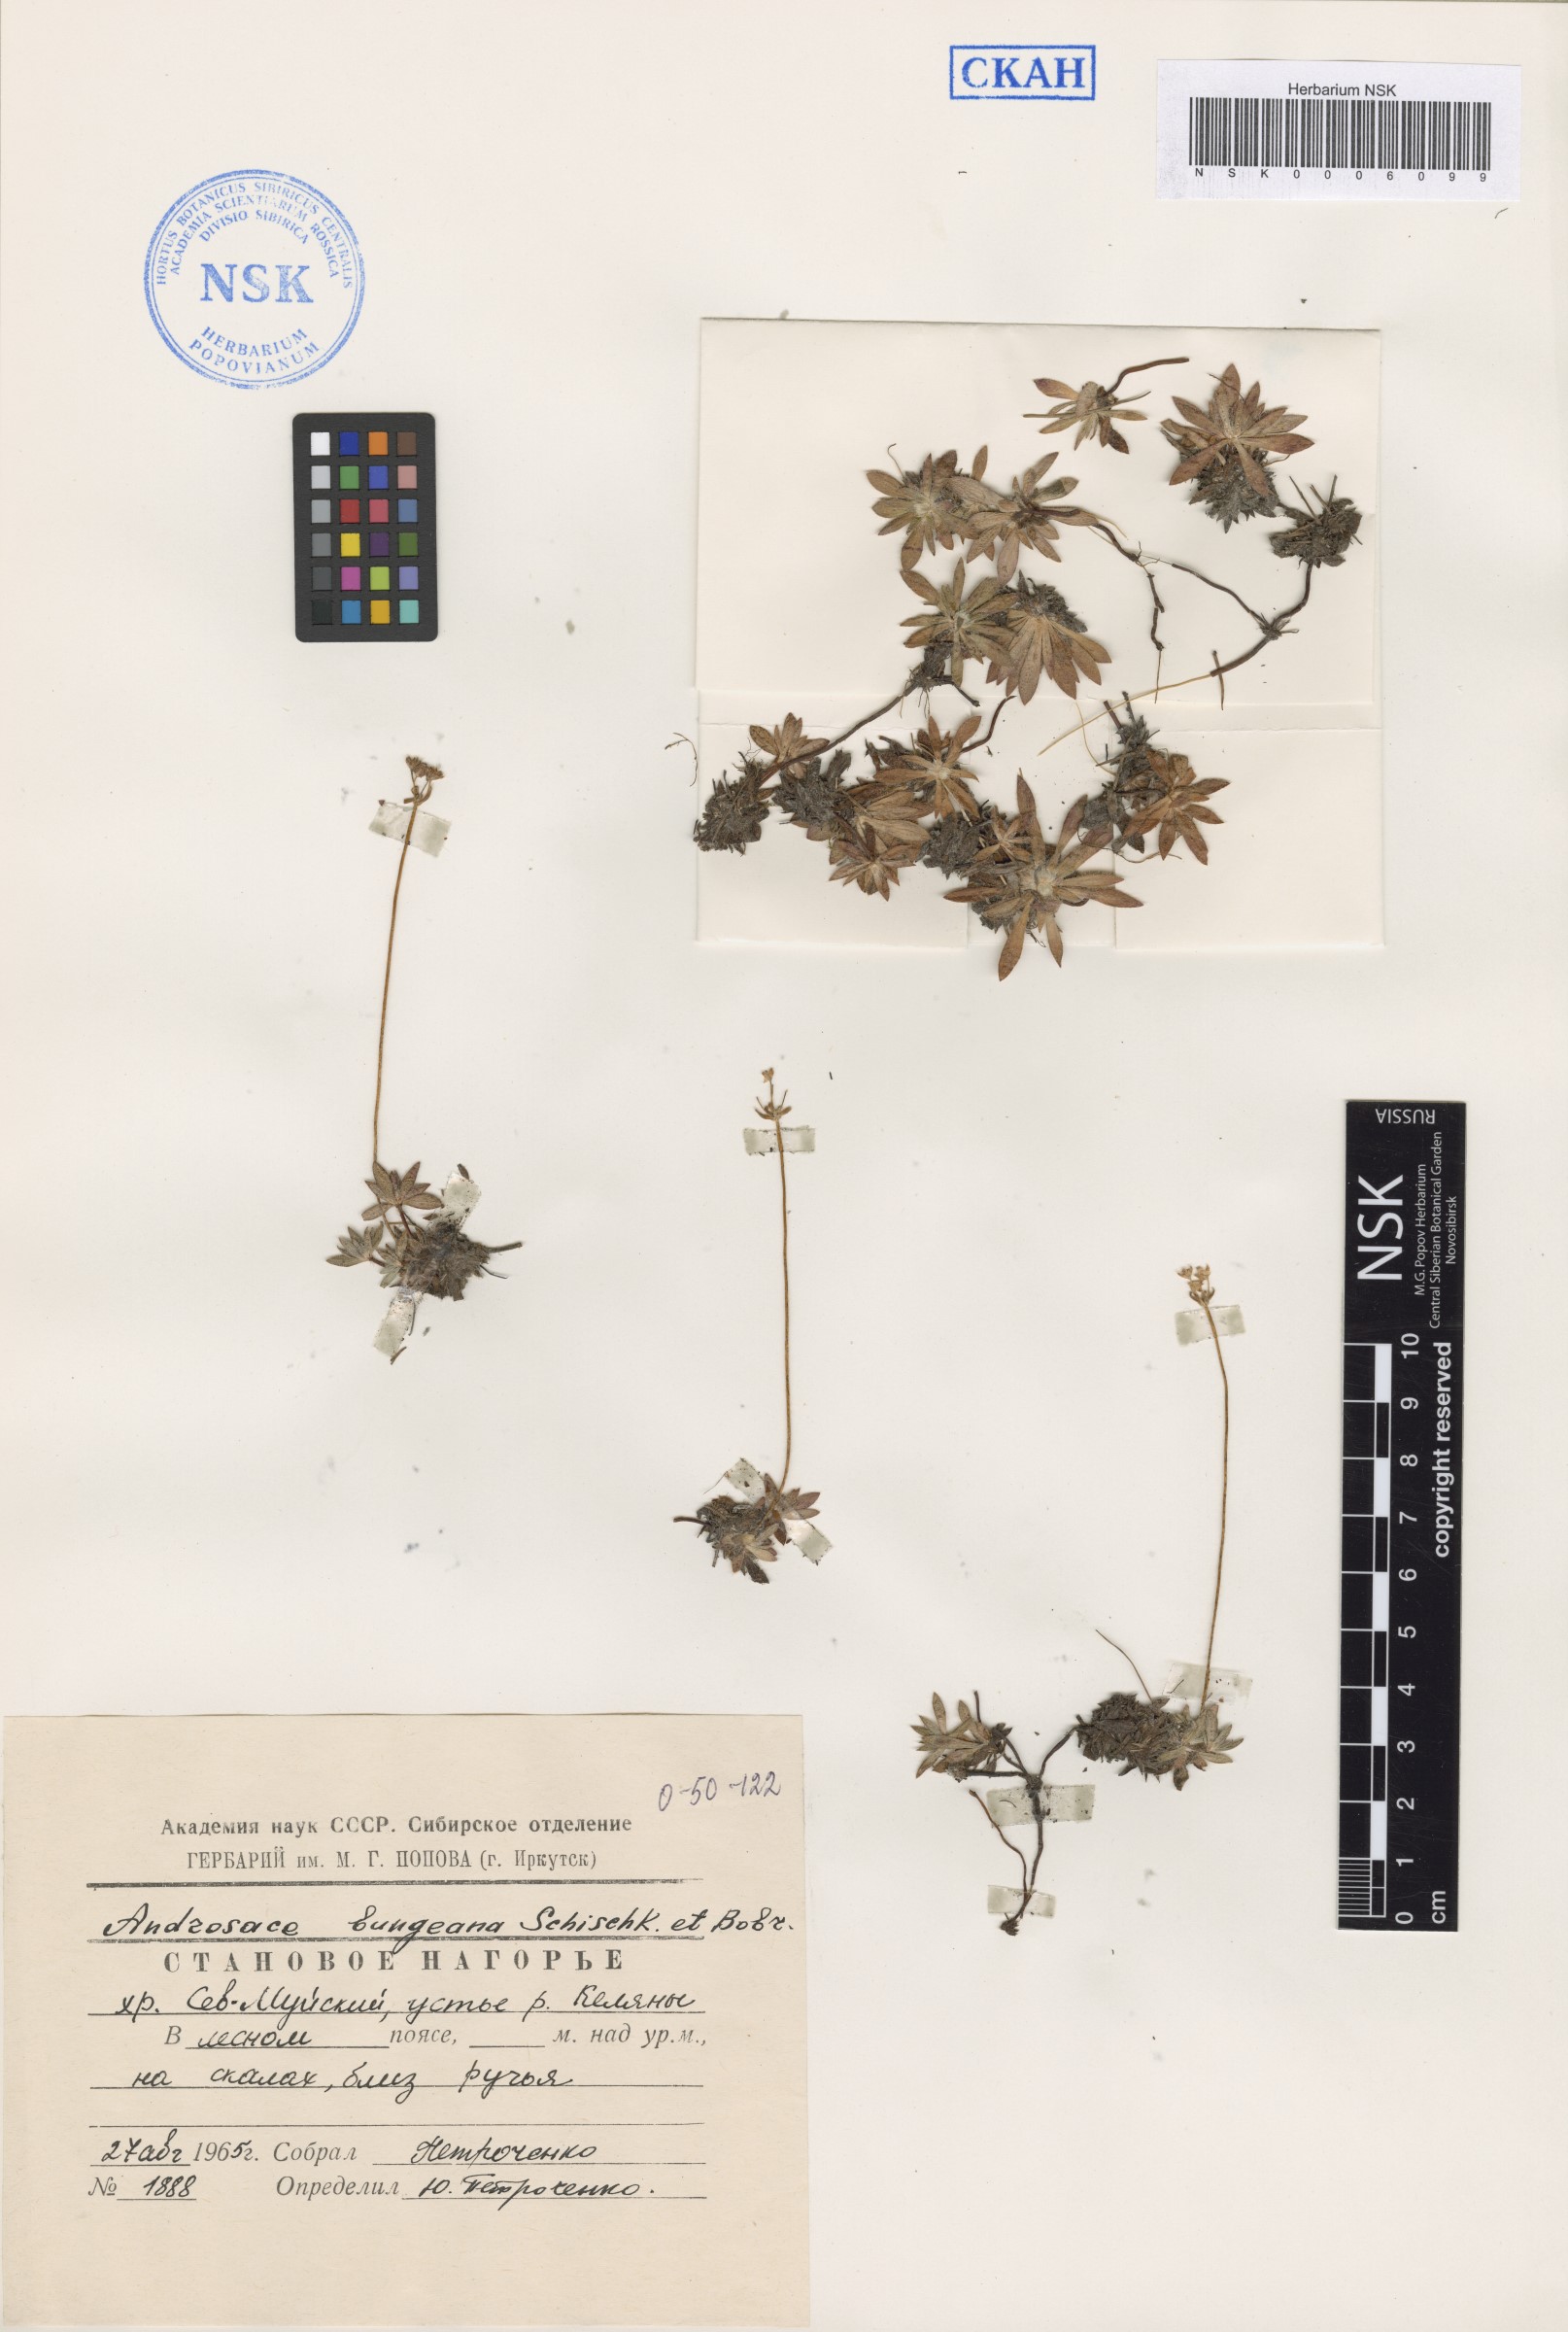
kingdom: Plantae
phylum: Tracheophyta
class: Magnoliopsida
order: Ericales
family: Primulaceae
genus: Androsace
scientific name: Androsace bungeana
